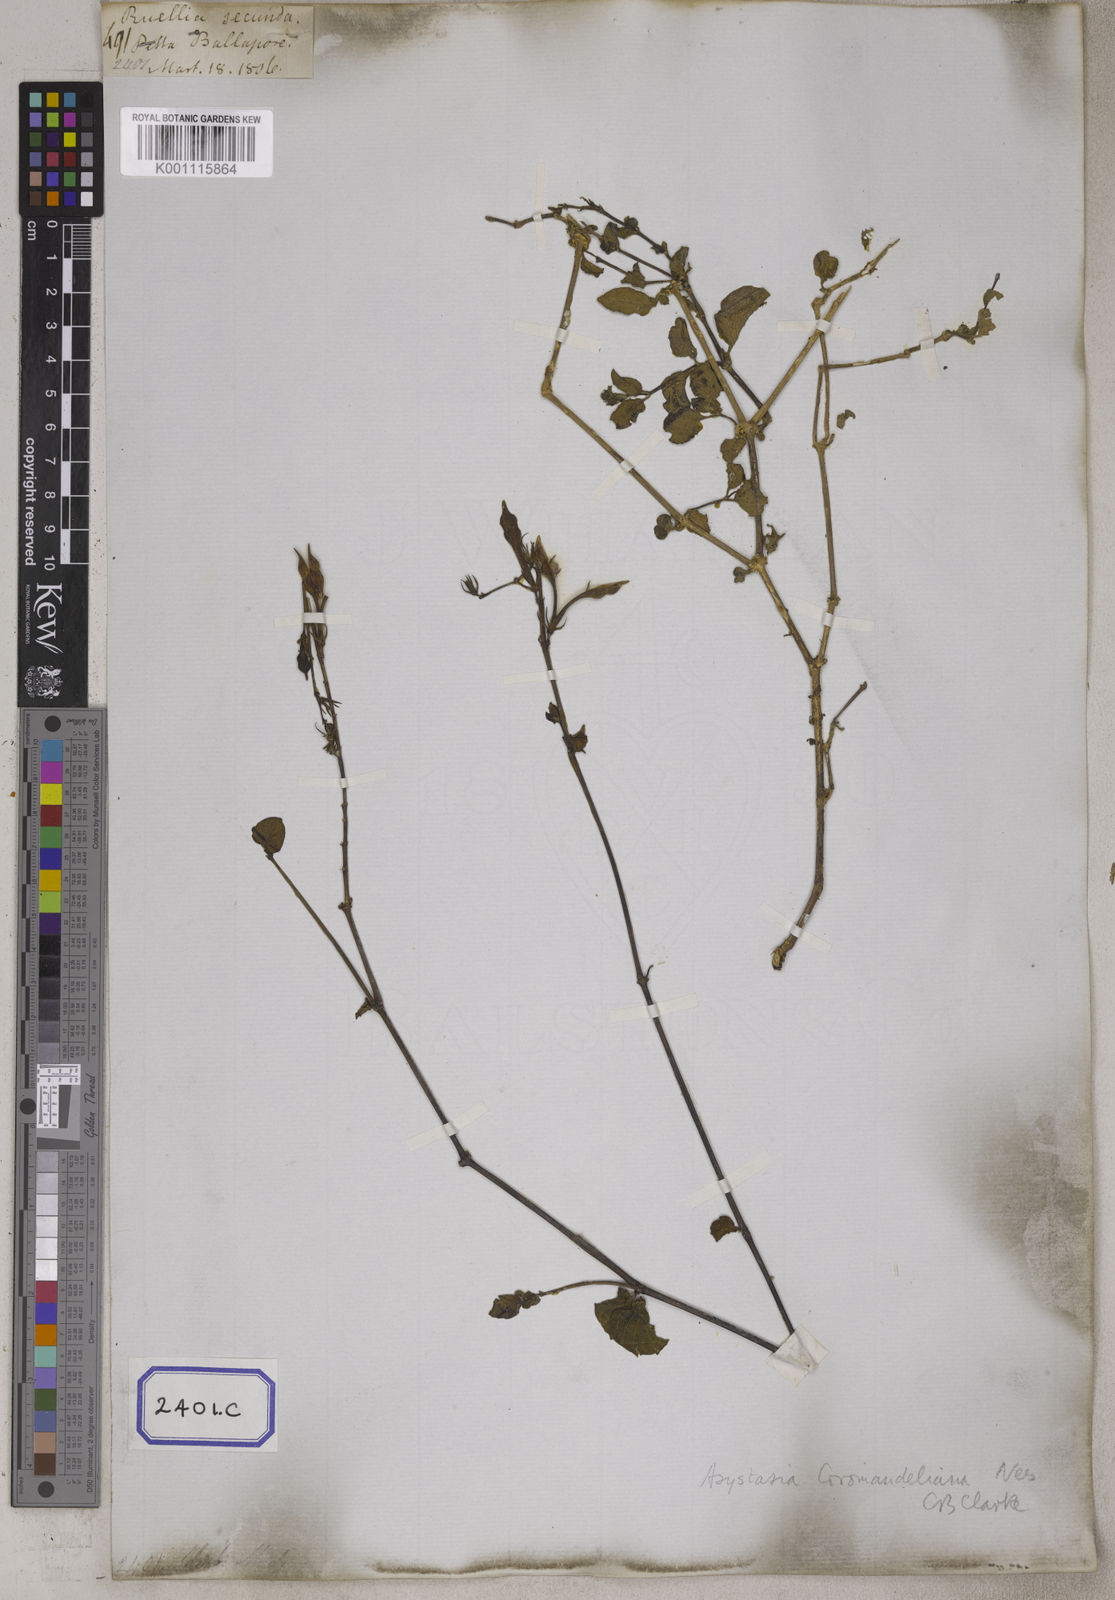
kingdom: Plantae
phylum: Tracheophyta
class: Magnoliopsida
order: Lamiales
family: Acanthaceae
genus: Asystasia
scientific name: Asystasia intrusa
